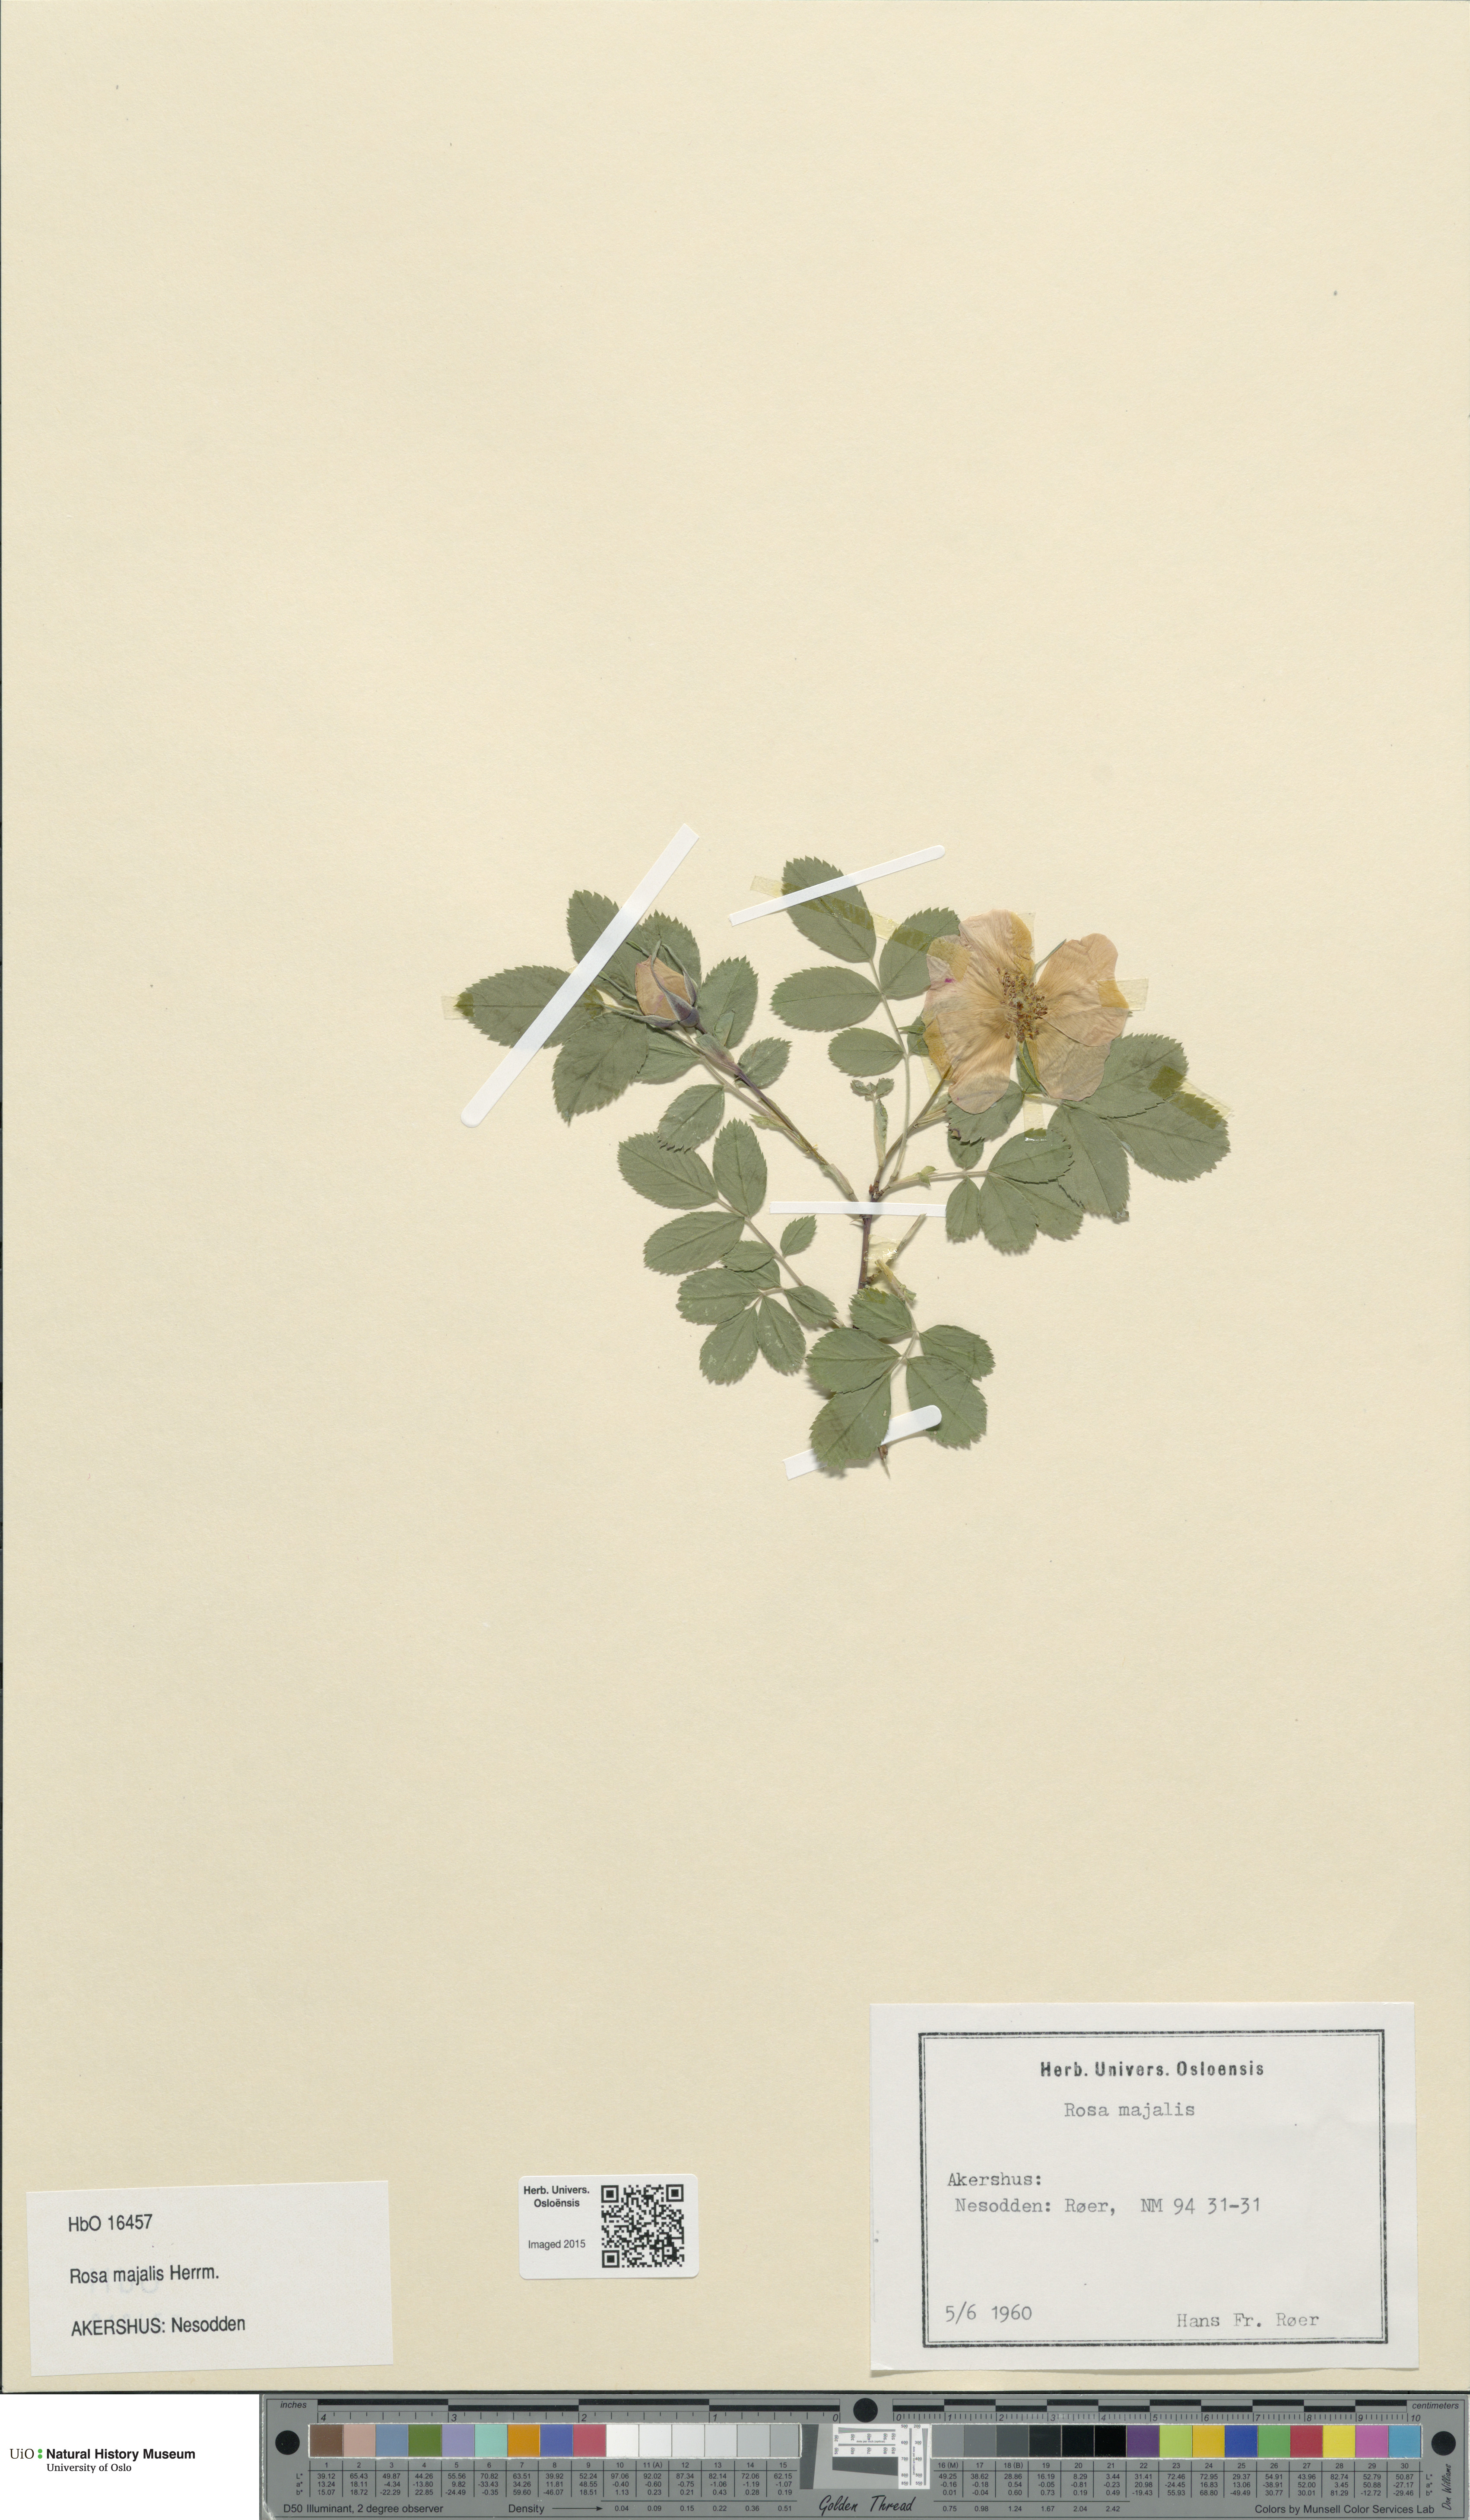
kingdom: Plantae
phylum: Tracheophyta
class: Magnoliopsida
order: Rosales
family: Rosaceae
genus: Rosa
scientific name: Rosa majalis
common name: Cinnamon rose
